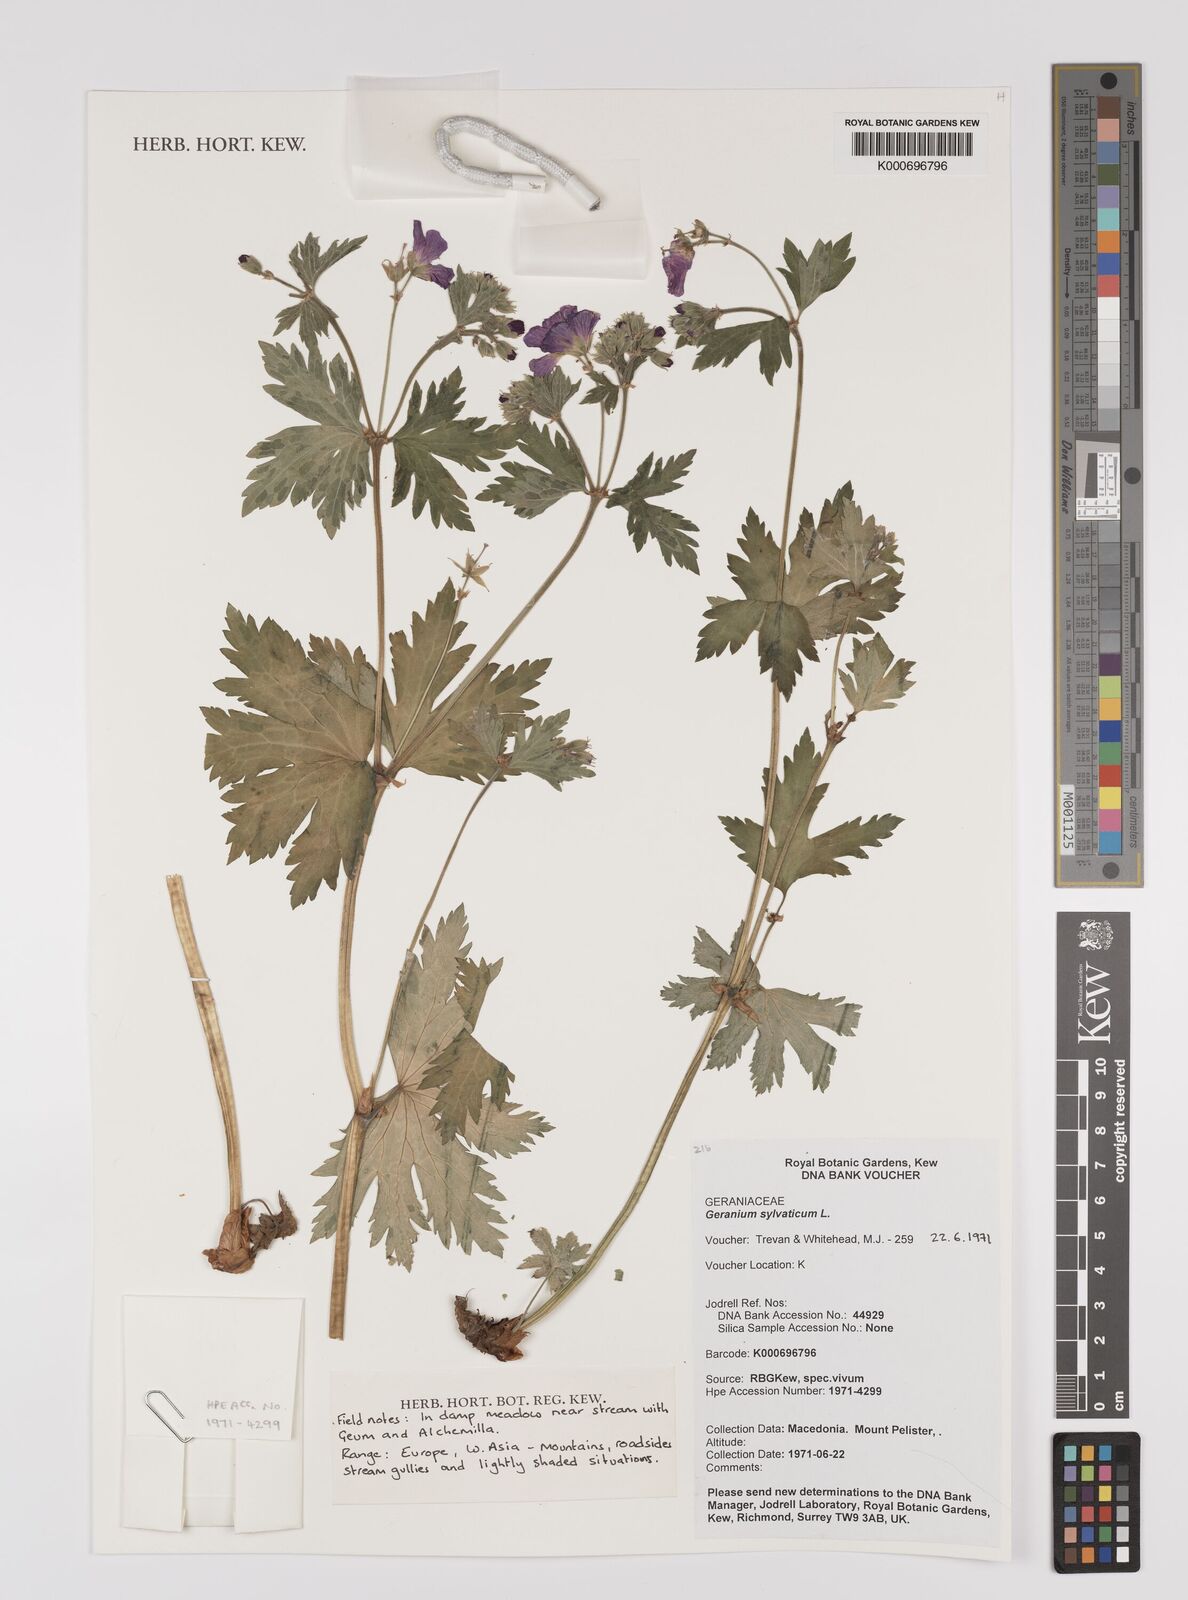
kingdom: Plantae
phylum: Tracheophyta
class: Magnoliopsida
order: Geraniales
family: Geraniaceae
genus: Geranium
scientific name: Geranium sylvaticum
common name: Wood crane's-bill
